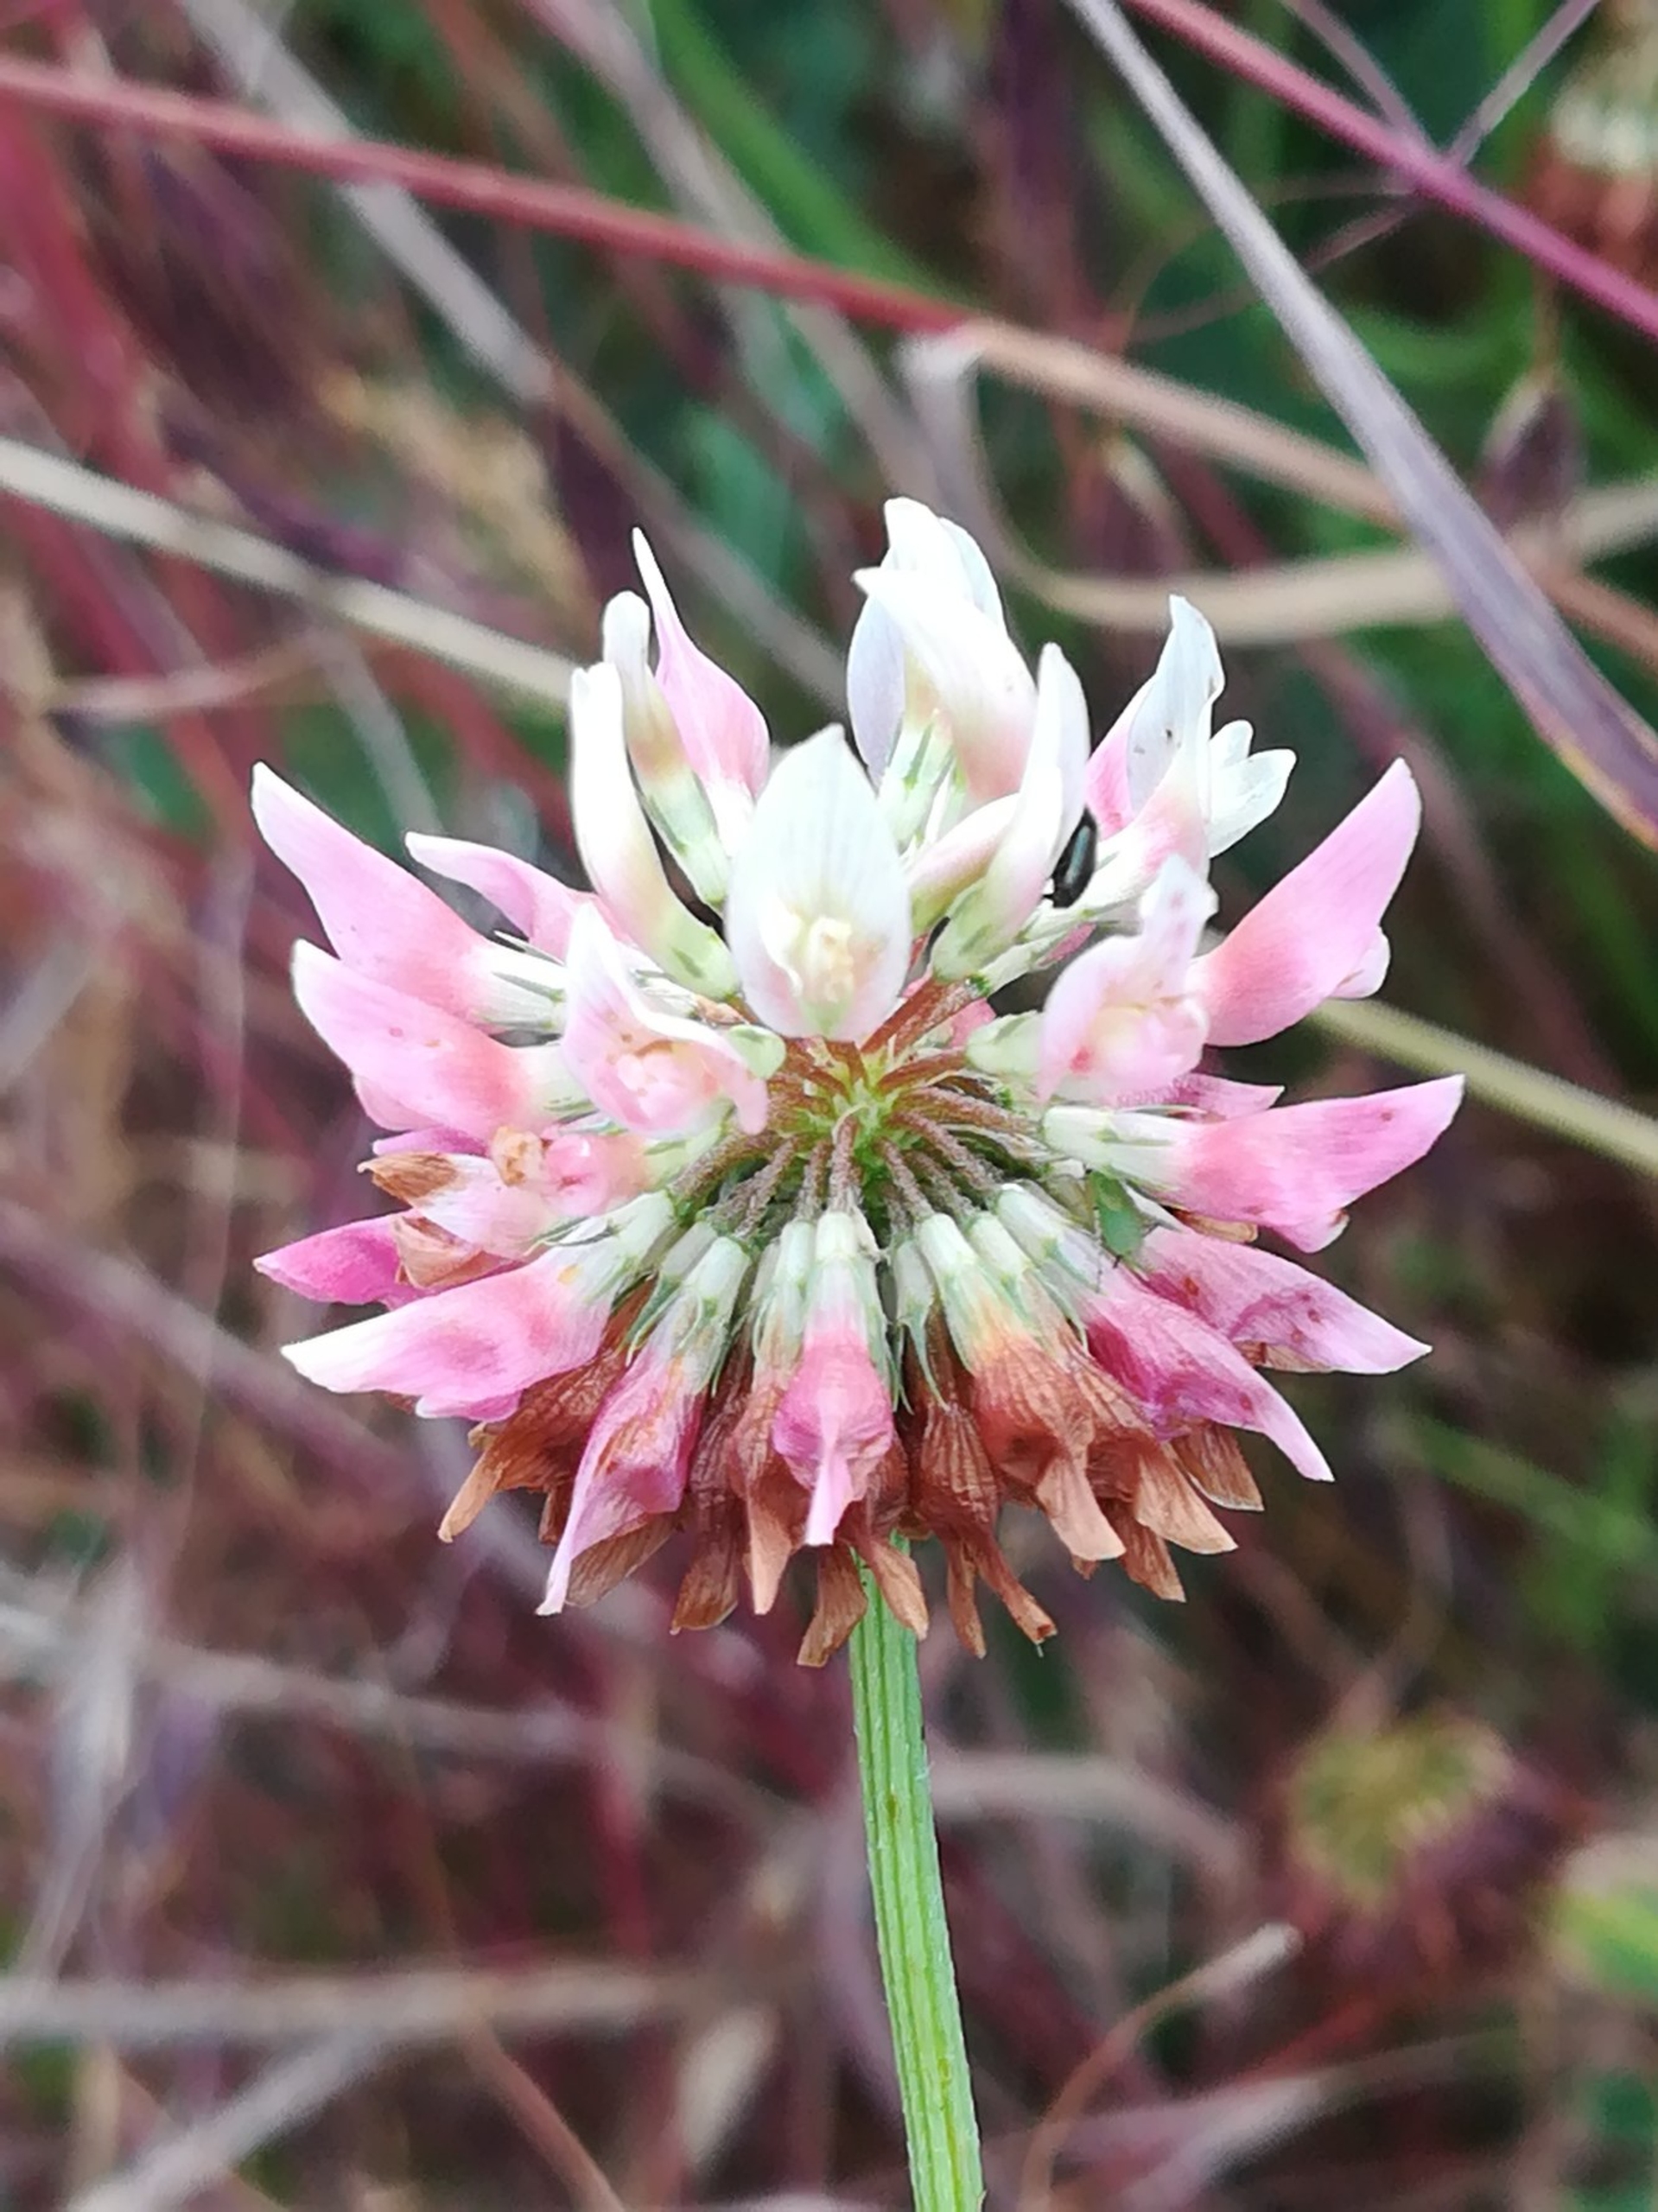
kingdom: Plantae
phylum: Tracheophyta
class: Magnoliopsida
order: Fabales
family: Fabaceae
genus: Trifolium
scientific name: Trifolium hybridum
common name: Alsike-kløver
